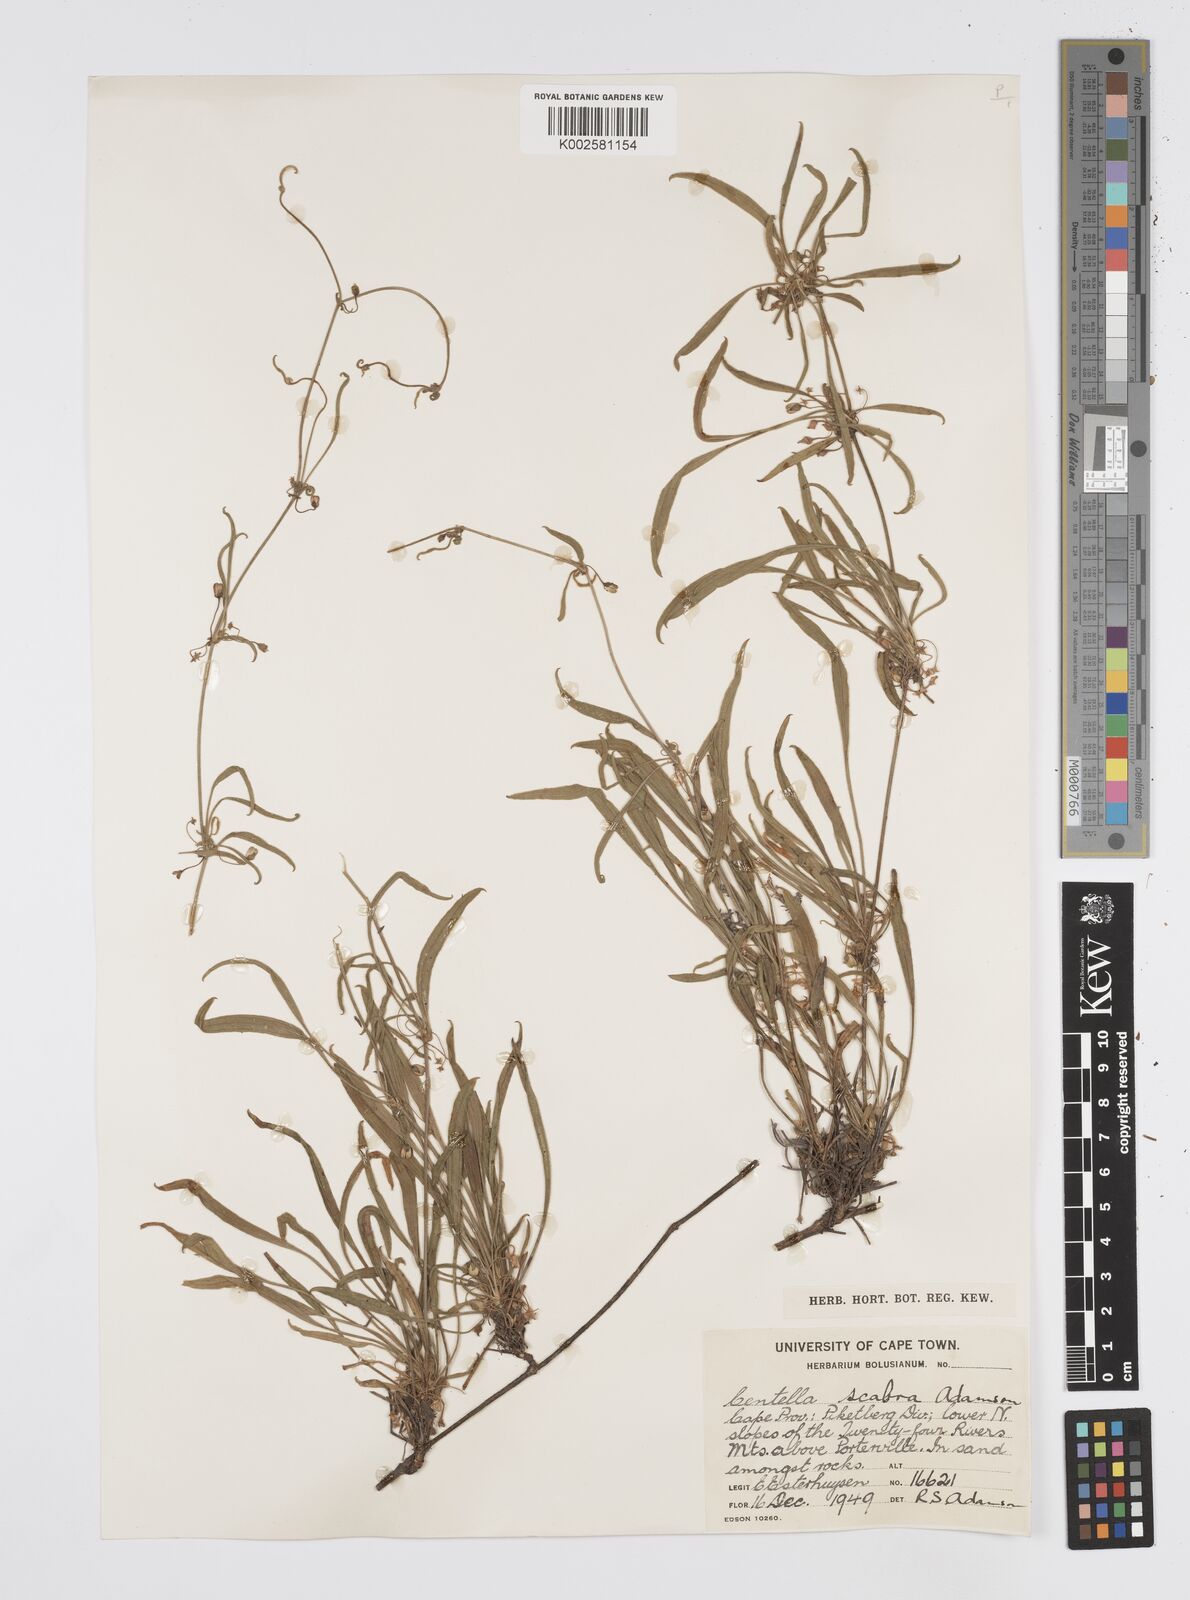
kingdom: Plantae
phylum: Tracheophyta
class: Magnoliopsida
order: Apiales
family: Apiaceae
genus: Centella
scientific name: Centella scabra
